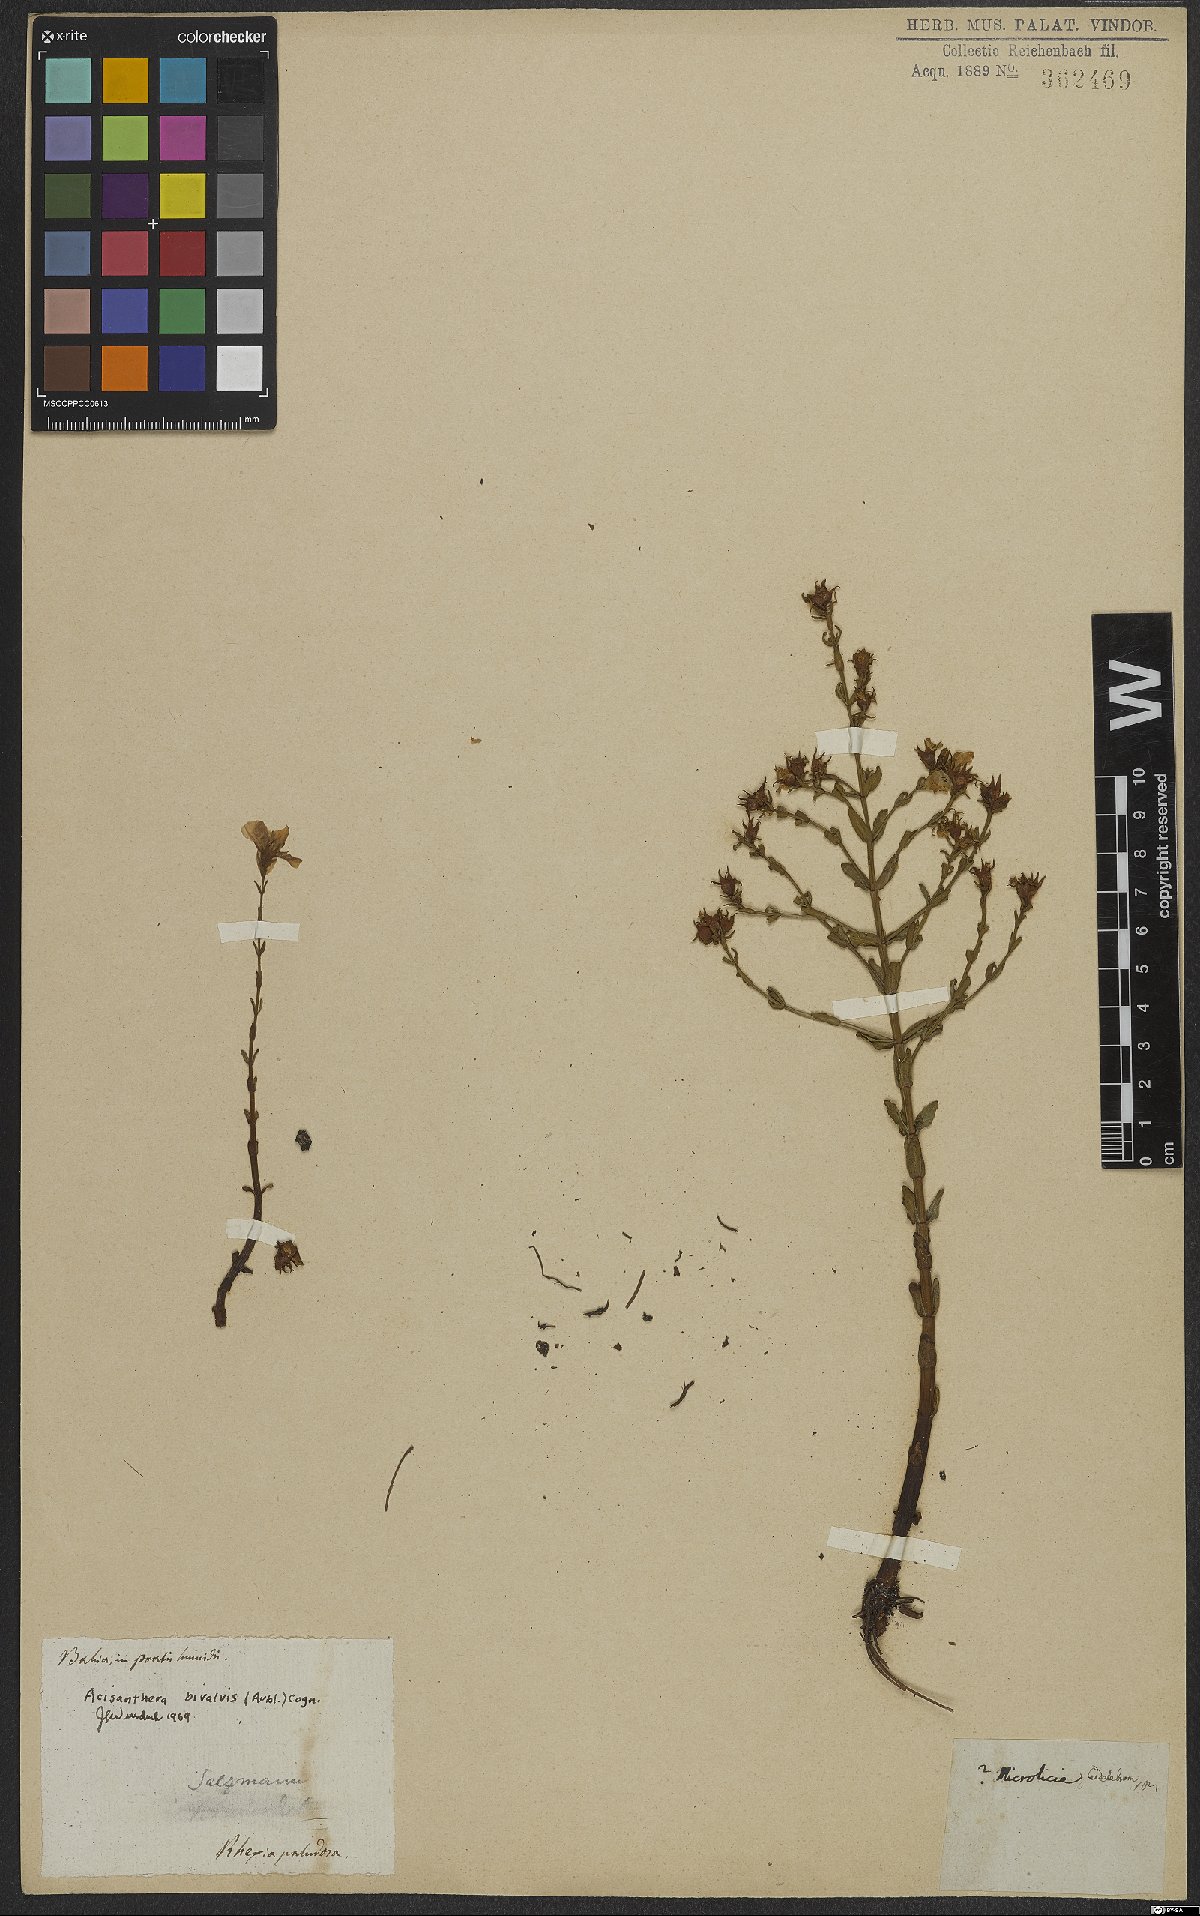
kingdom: Plantae
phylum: Tracheophyta
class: Magnoliopsida
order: Myrtales
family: Melastomataceae
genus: Noterophila
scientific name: Noterophila bivalvis
